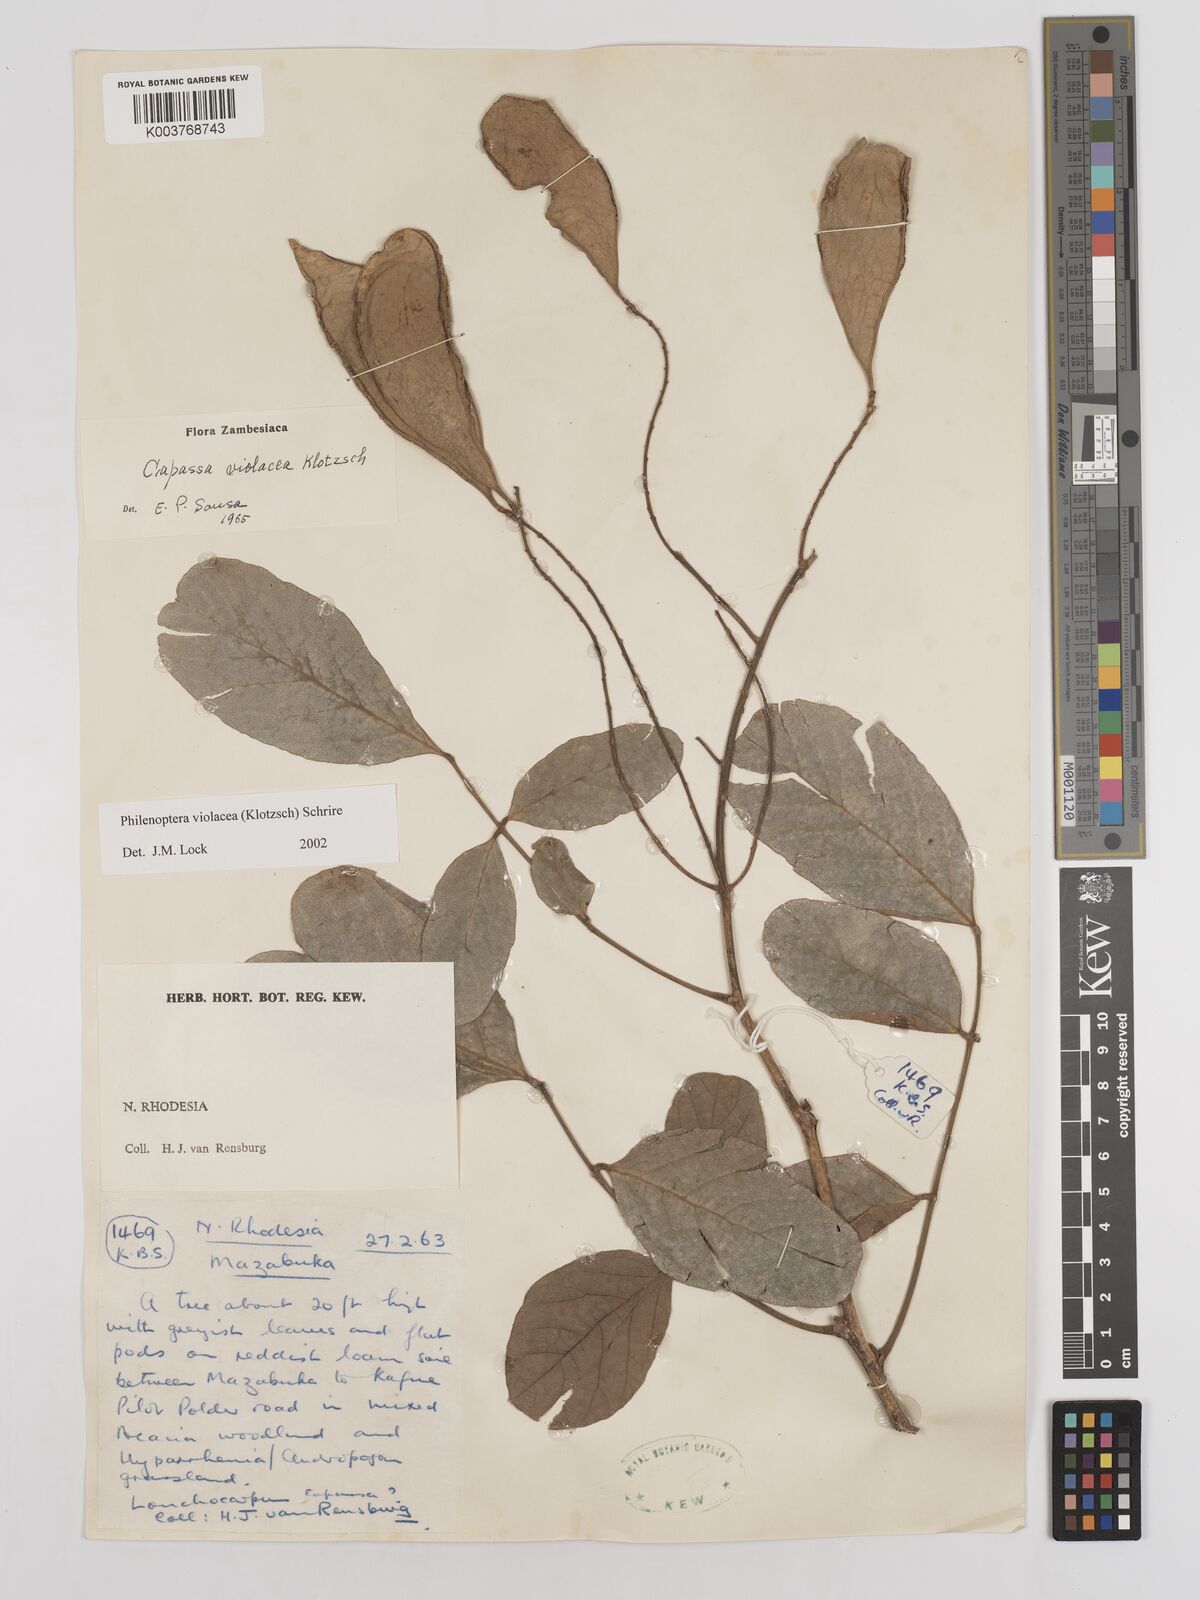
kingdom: Plantae
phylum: Tracheophyta
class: Magnoliopsida
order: Fabales
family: Fabaceae
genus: Philenoptera
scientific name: Philenoptera violacea
